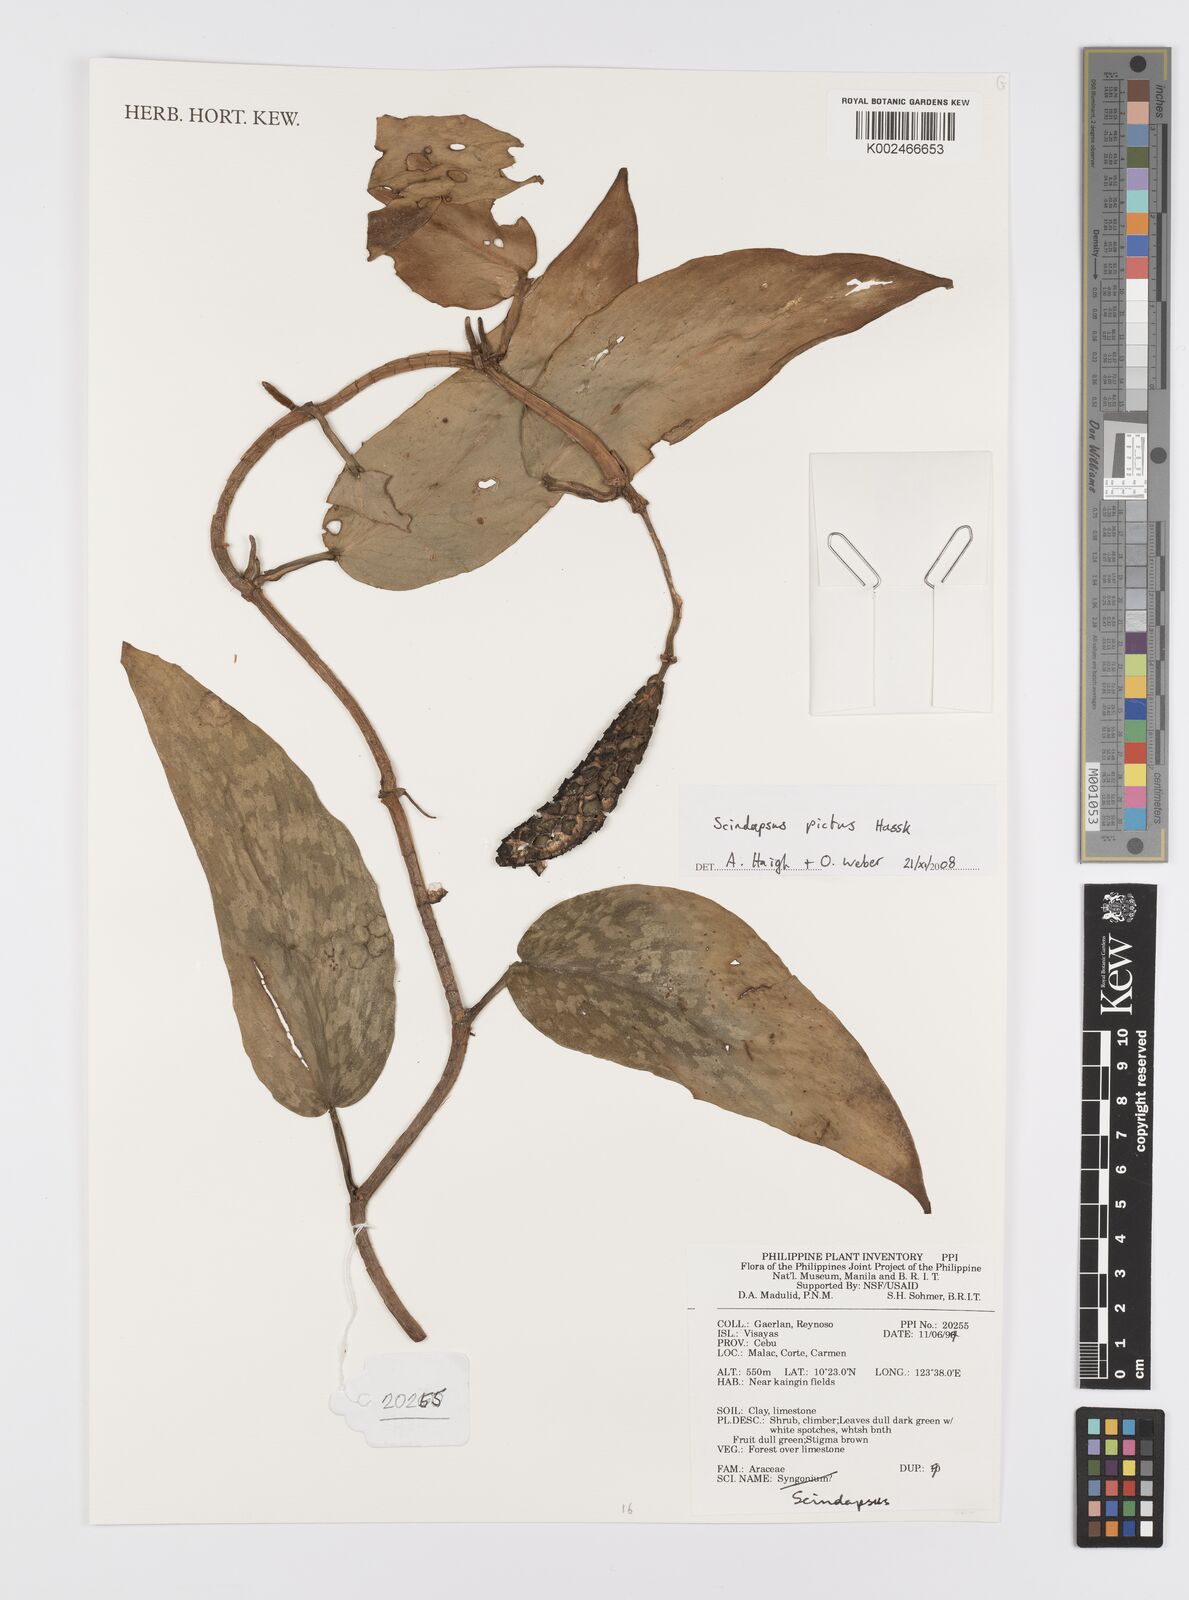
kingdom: Plantae
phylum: Tracheophyta
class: Liliopsida
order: Alismatales
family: Araceae
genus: Scindapsus
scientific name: Scindapsus pictus
